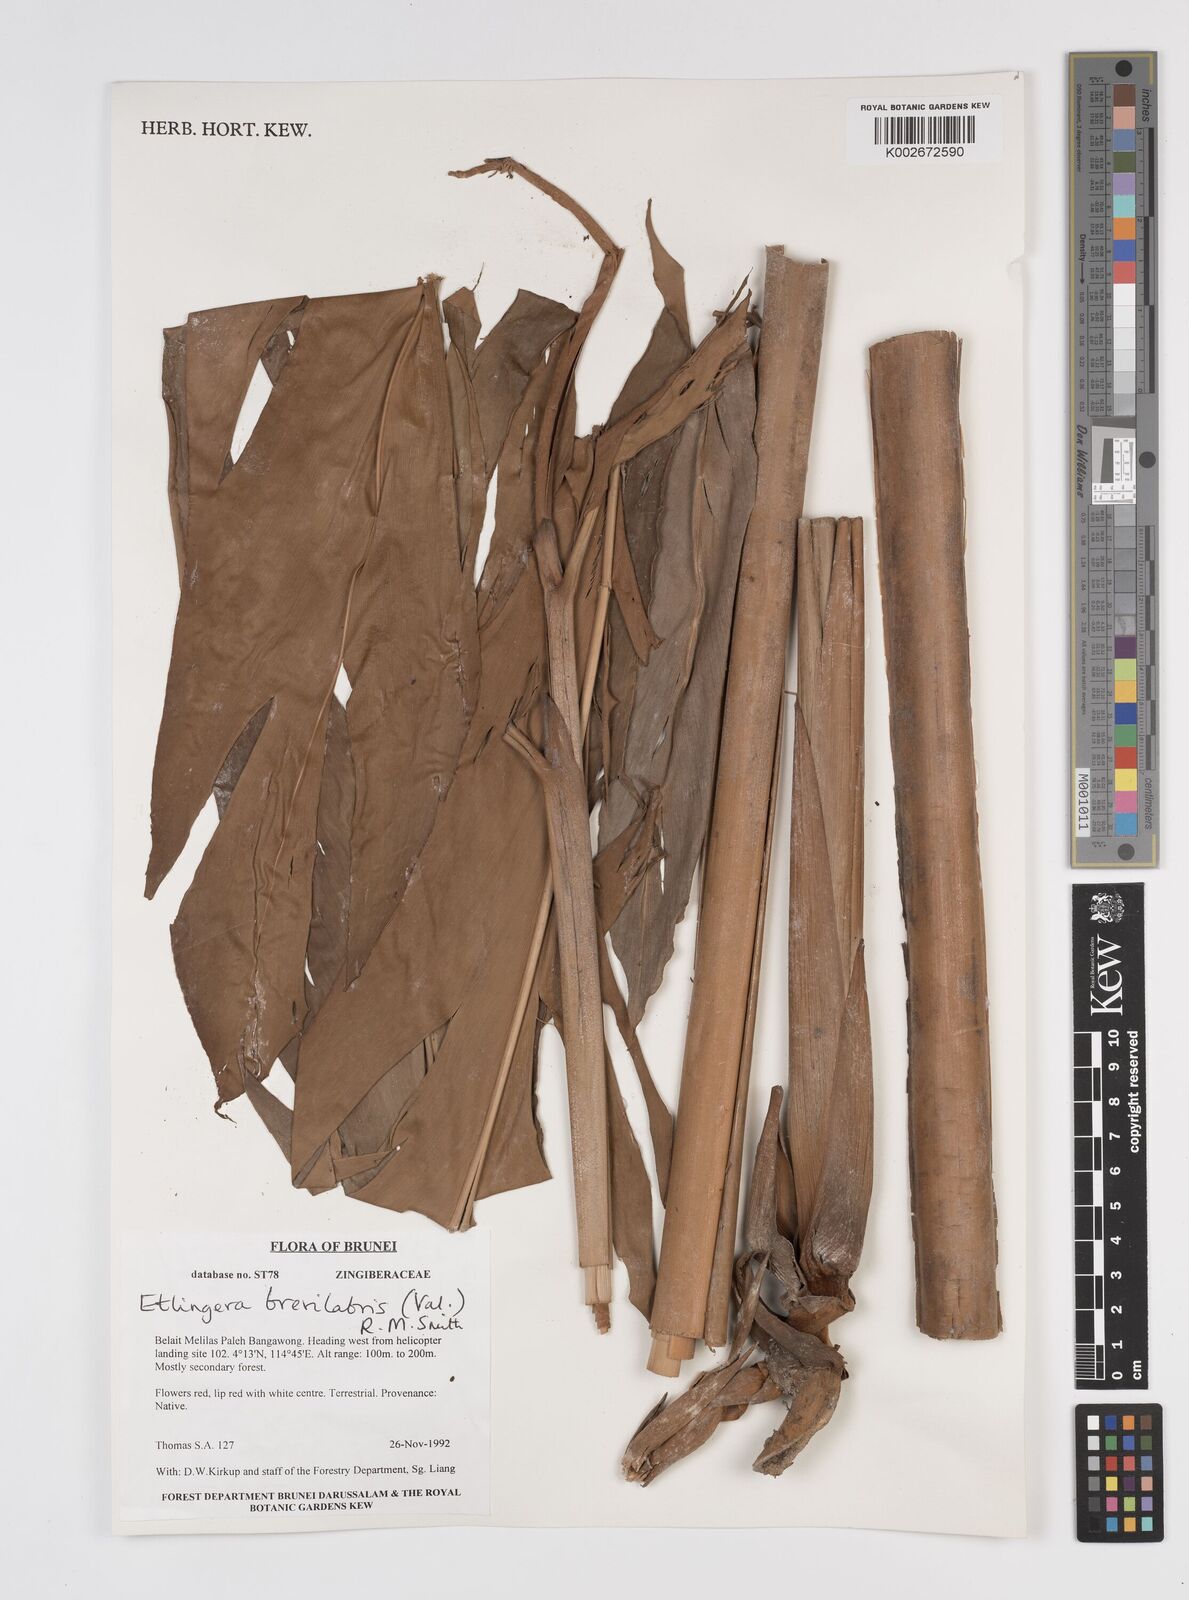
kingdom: Plantae
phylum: Tracheophyta
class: Liliopsida
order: Zingiberales
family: Zingiberaceae
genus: Etlingera
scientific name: Etlingera
